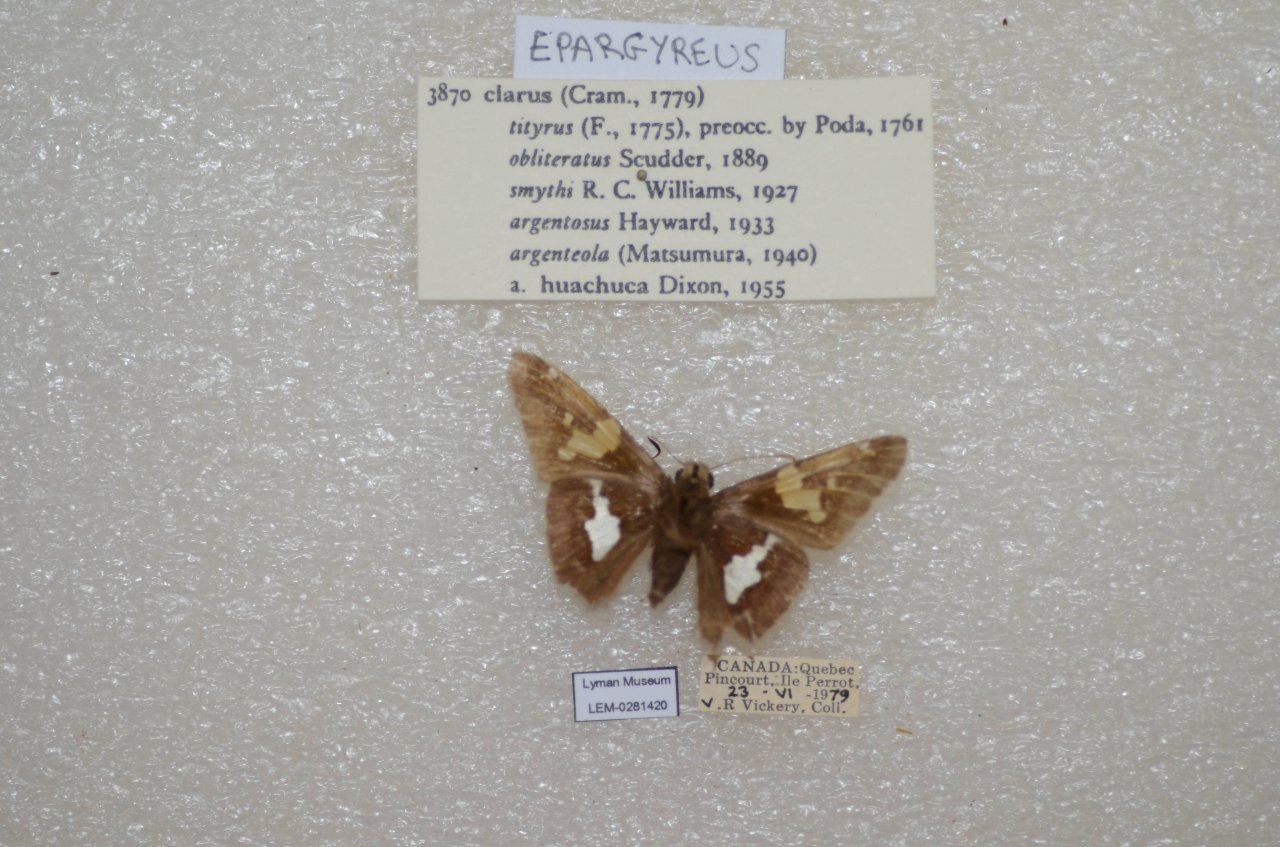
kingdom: Animalia
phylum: Arthropoda
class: Insecta
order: Lepidoptera
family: Hesperiidae
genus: Epargyreus
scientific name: Epargyreus clarus
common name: Silver-spotted Skipper
